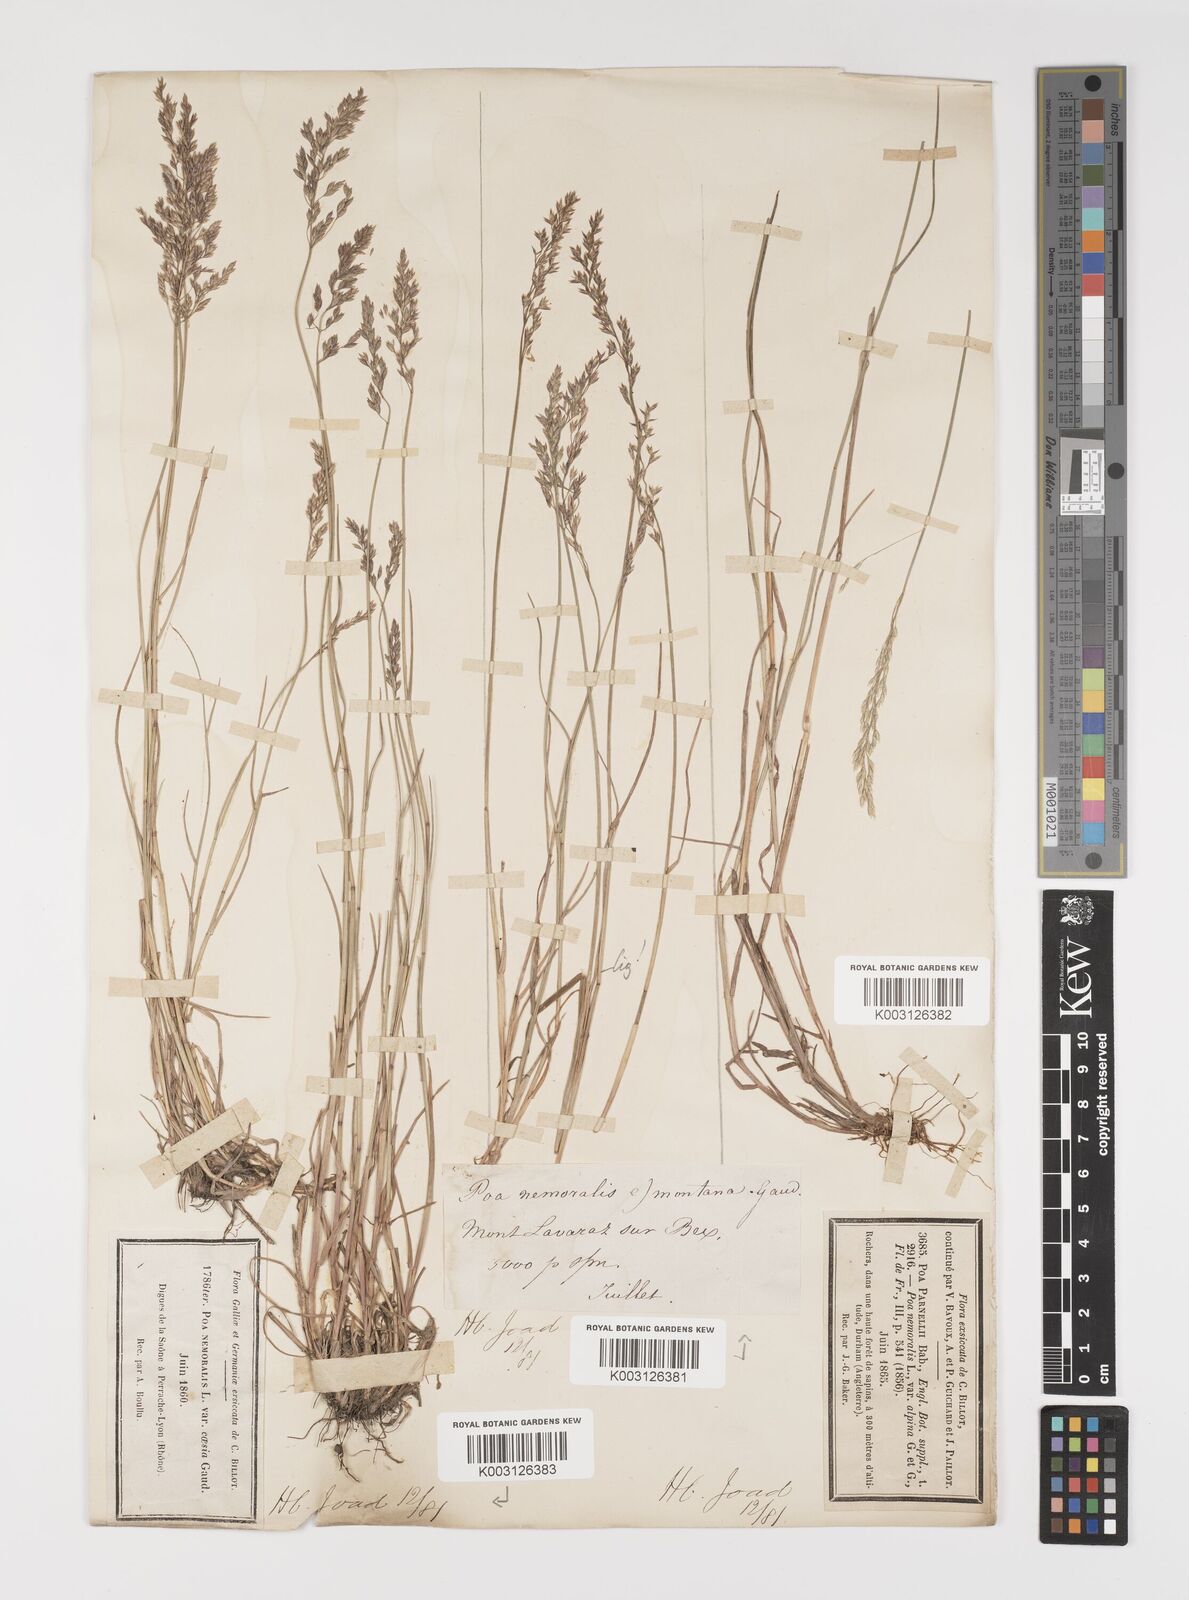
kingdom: Plantae
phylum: Tracheophyta
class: Liliopsida
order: Poales
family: Poaceae
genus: Poa
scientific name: Poa glauca
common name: Glaucous bluegrass
